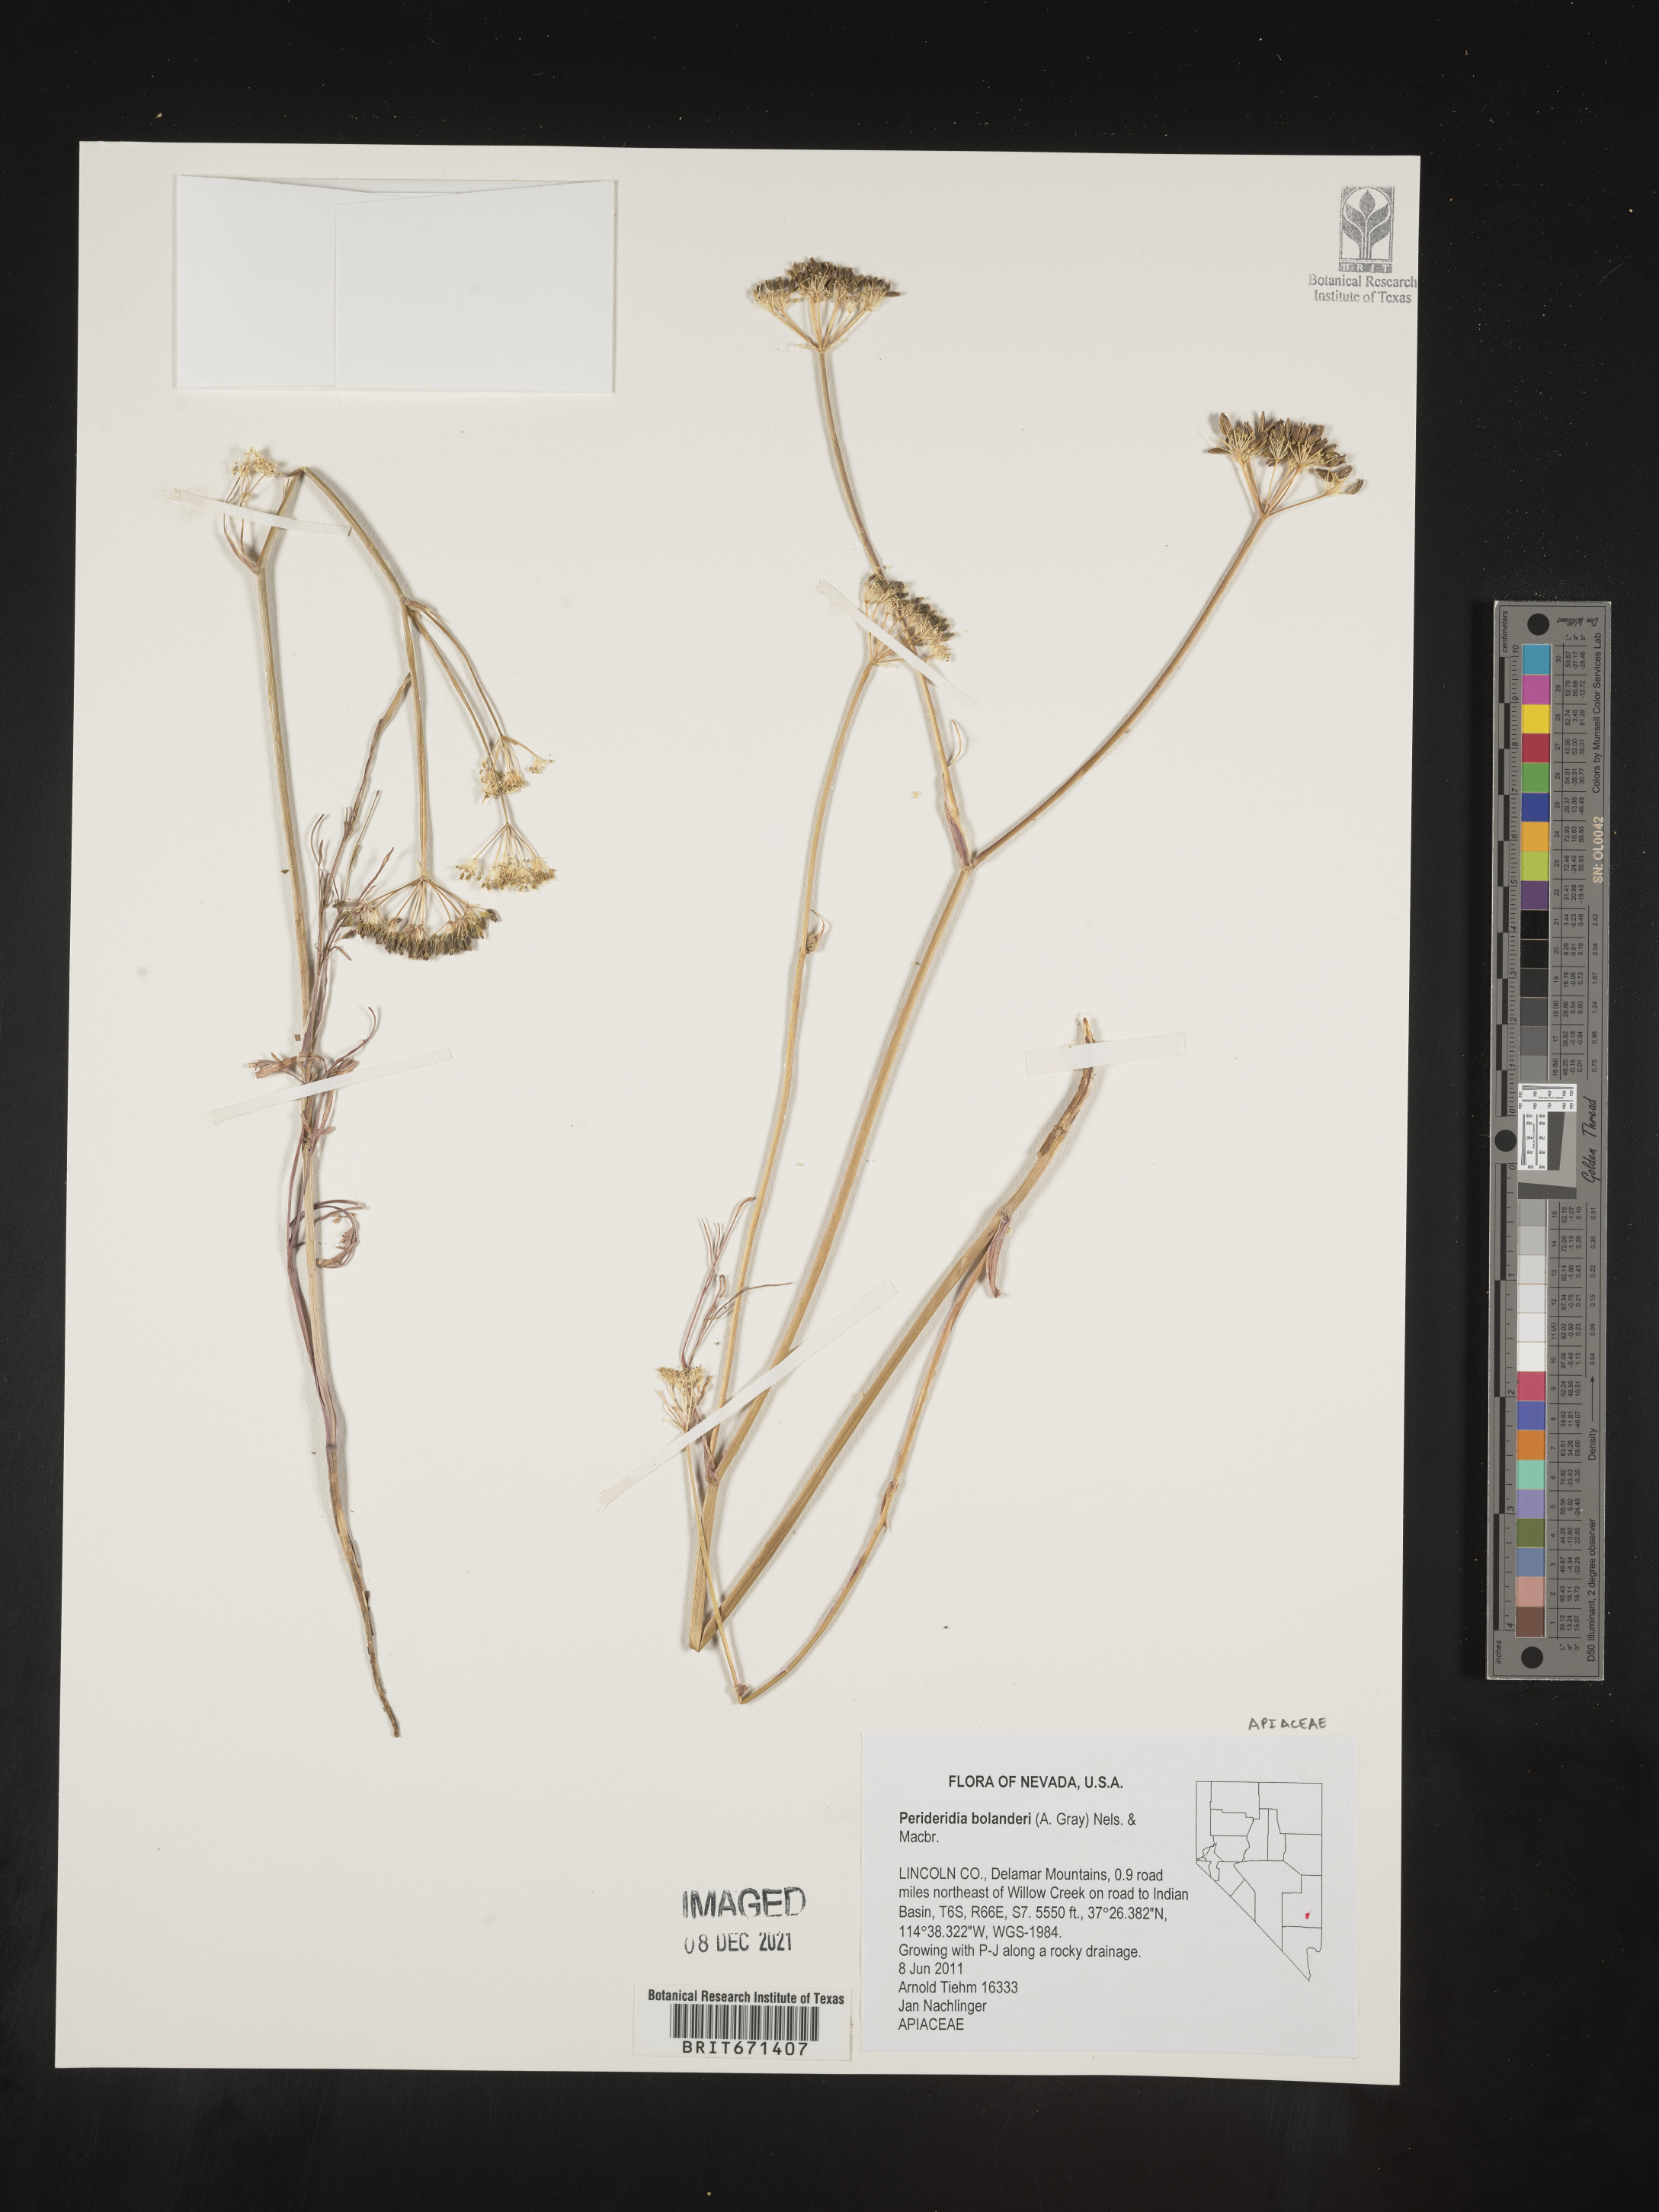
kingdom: Plantae
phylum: Tracheophyta
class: Magnoliopsida
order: Apiales
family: Apiaceae
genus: Perideridia
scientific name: Perideridia bolanderi
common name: Olasi
